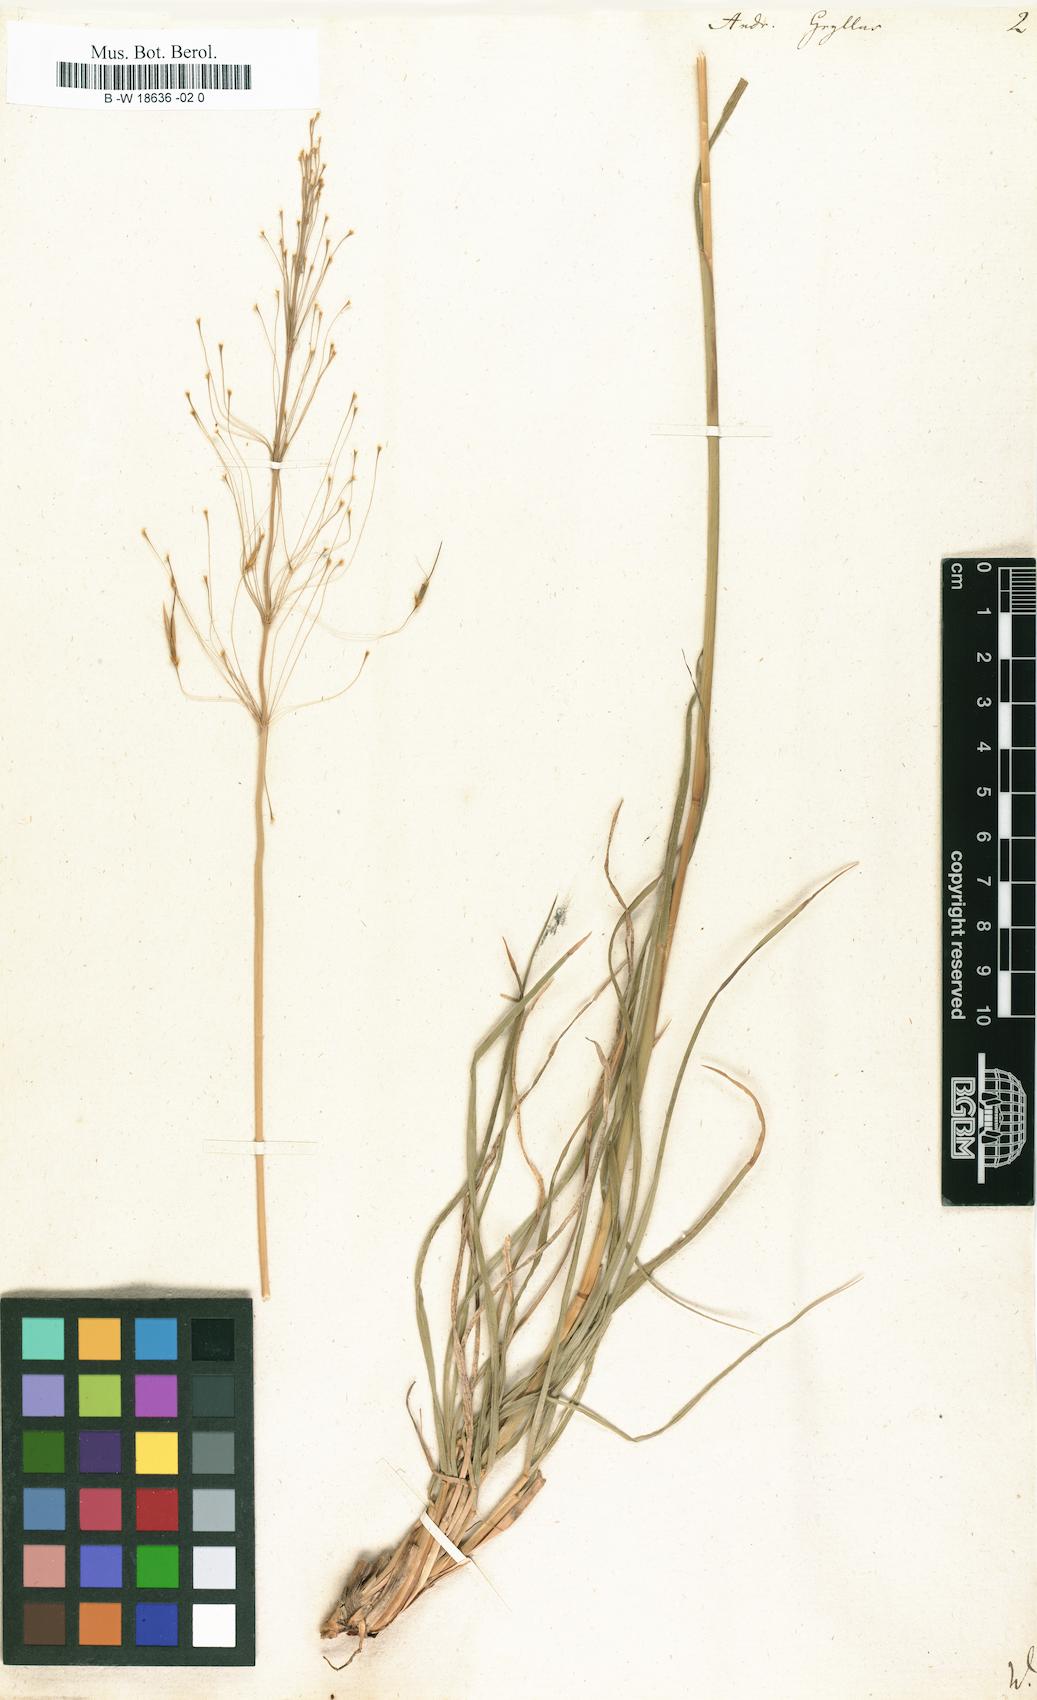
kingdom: Plantae
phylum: Tracheophyta
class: Liliopsida
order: Poales
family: Poaceae
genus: Chrysopogon
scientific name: Chrysopogon gryllus
